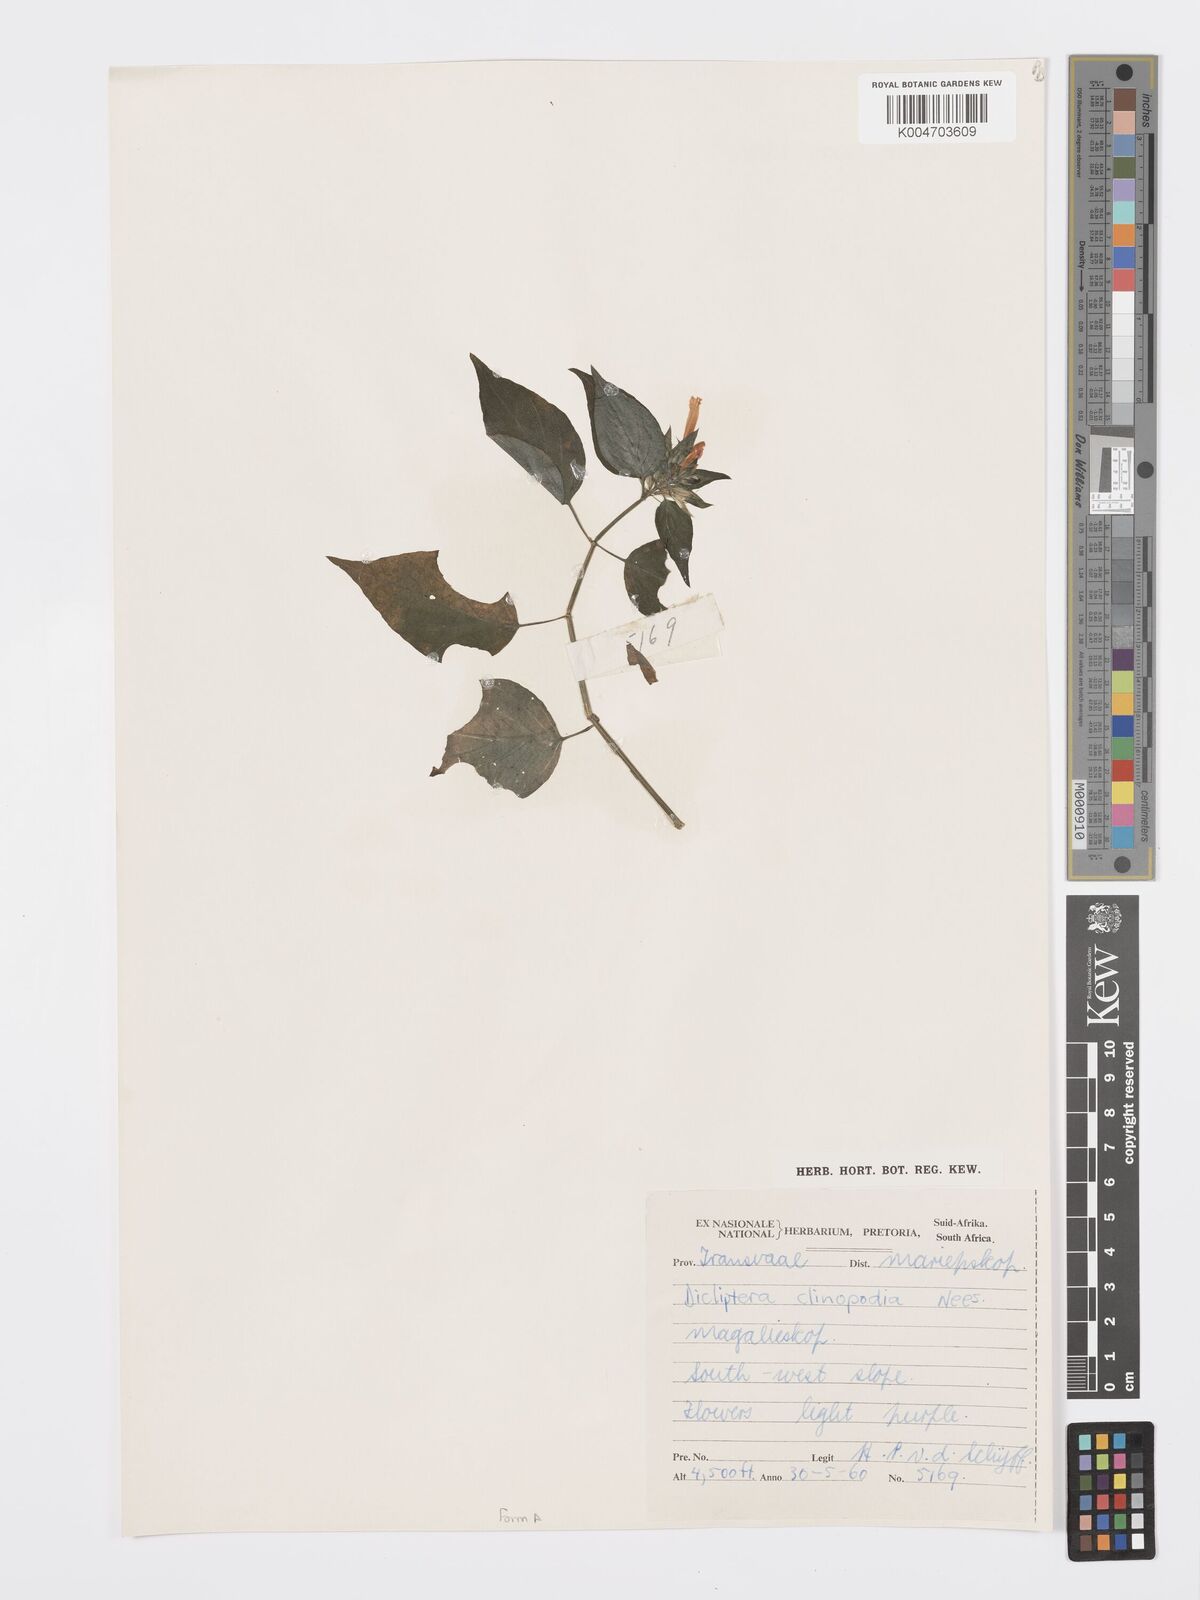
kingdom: Plantae
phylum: Tracheophyta
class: Magnoliopsida
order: Lamiales
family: Acanthaceae
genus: Dicliptera
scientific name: Dicliptera clinopodia
